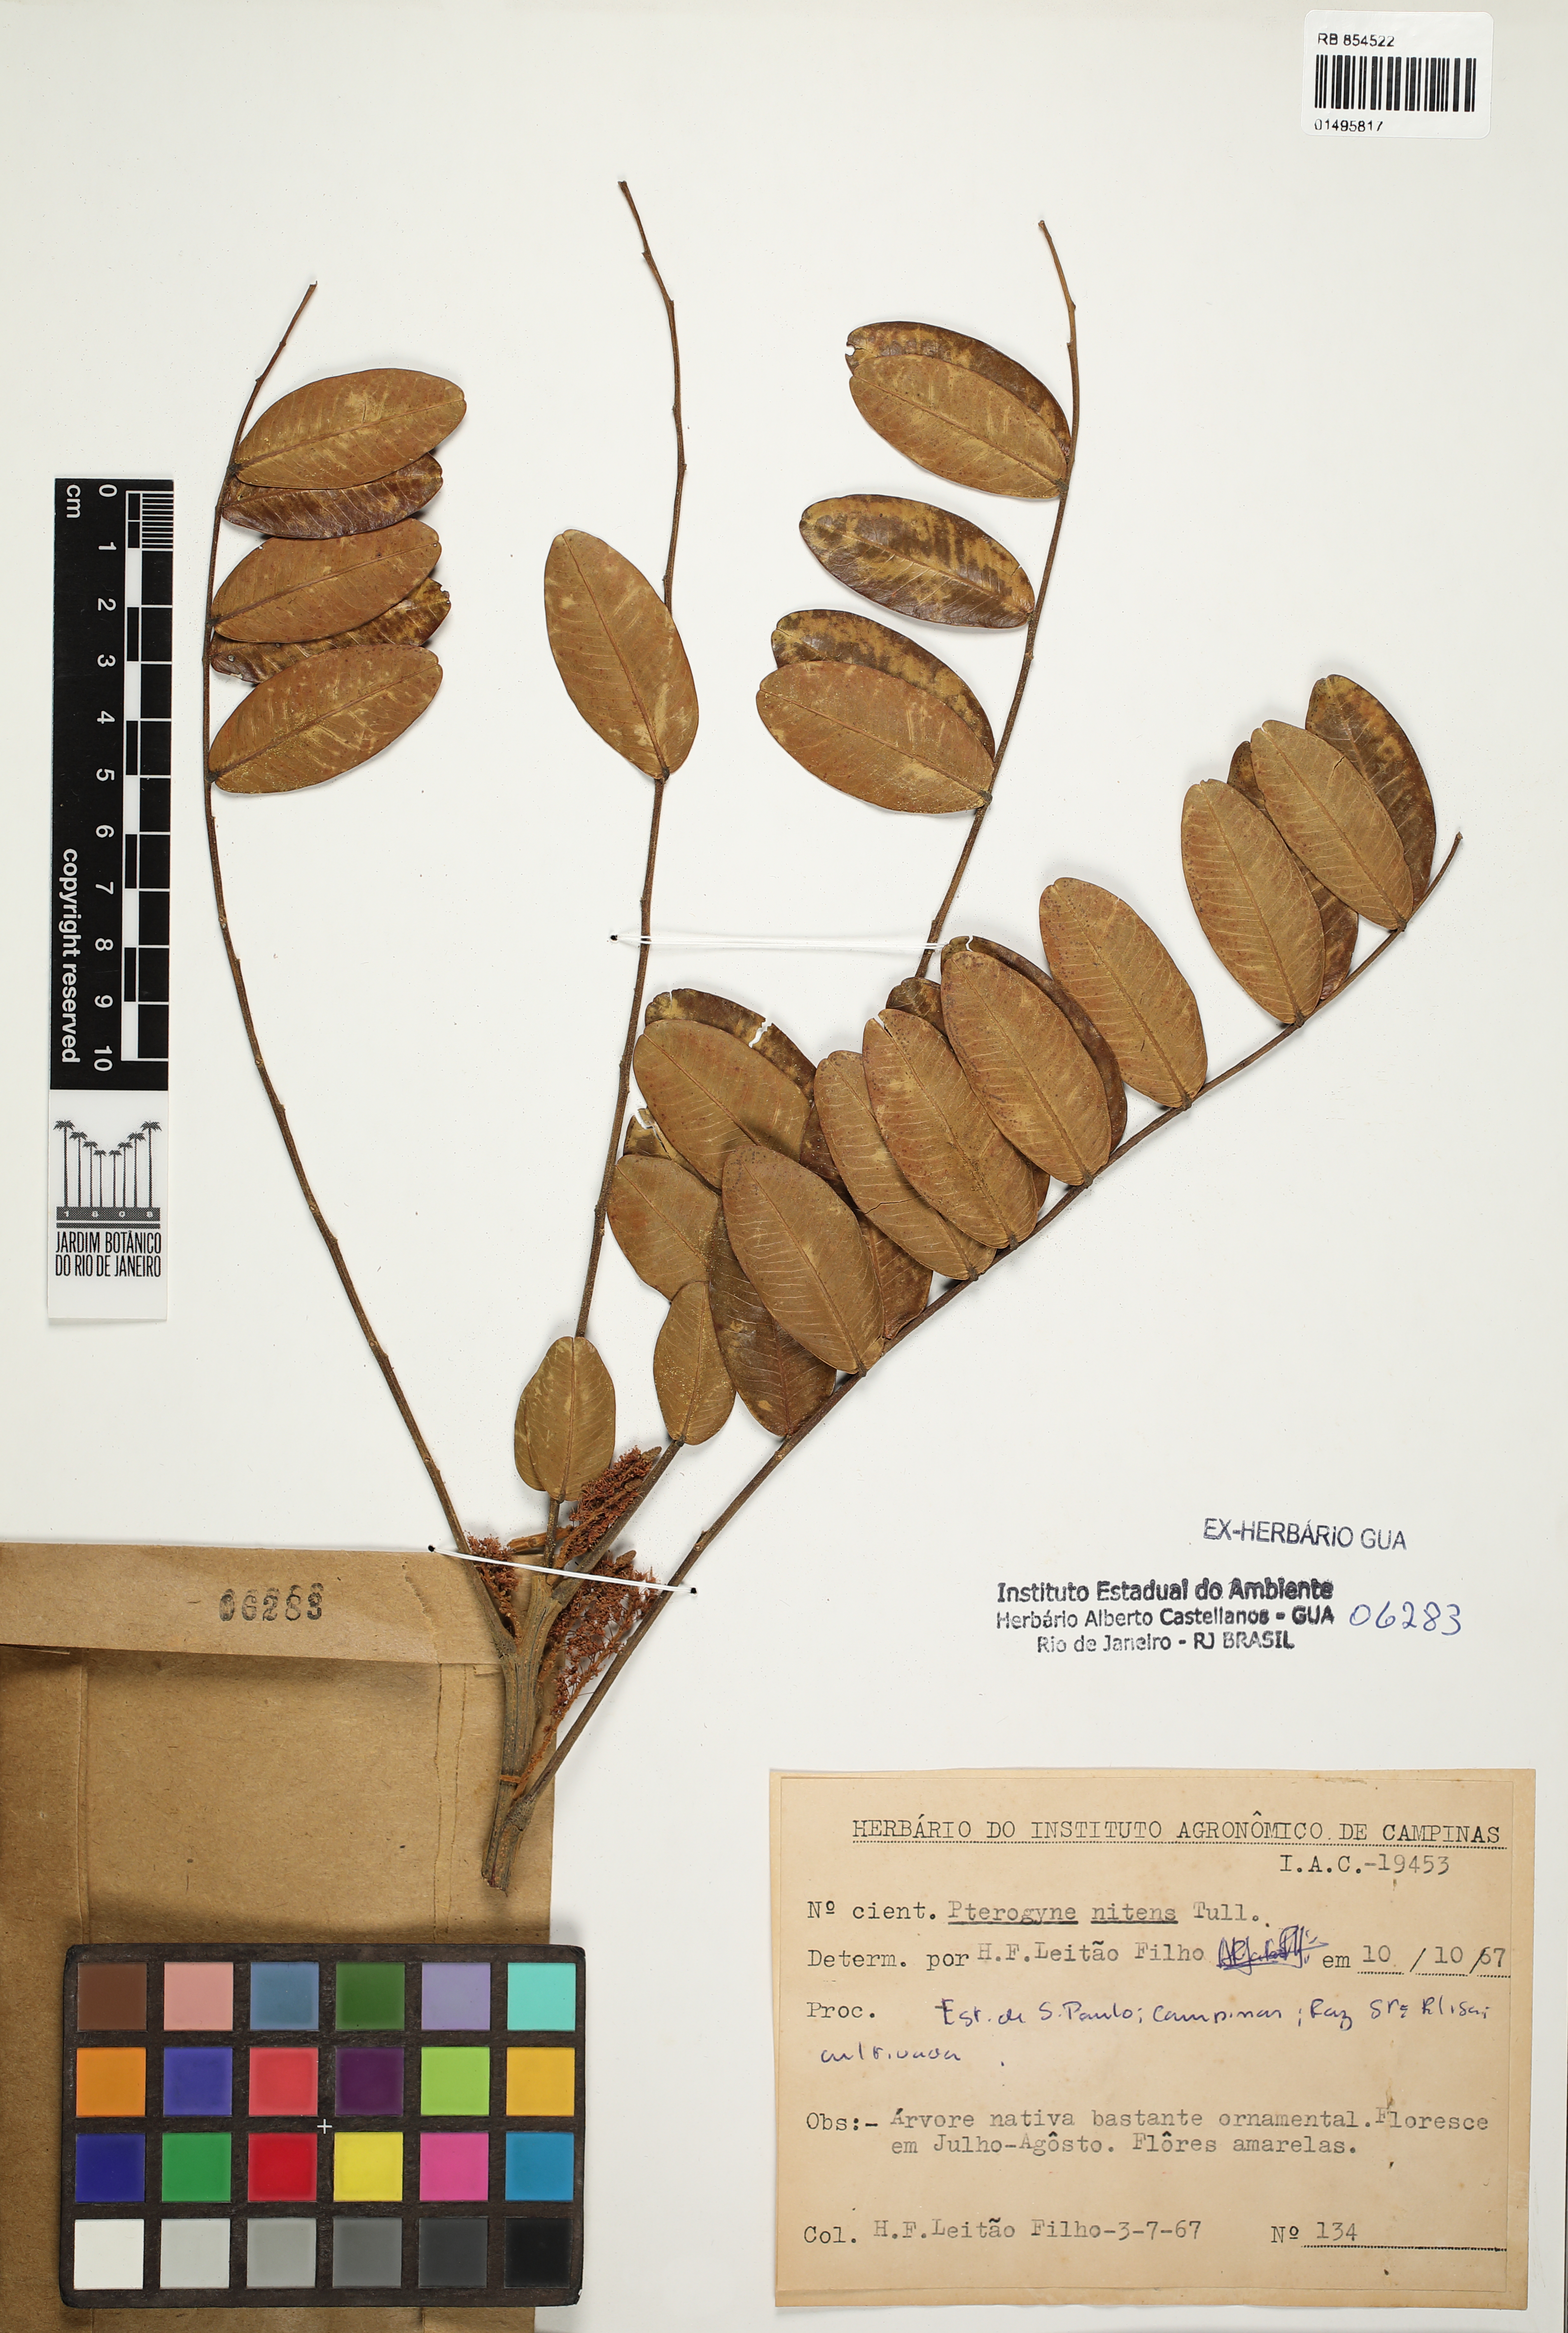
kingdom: Plantae
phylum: Tracheophyta
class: Magnoliopsida
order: Fabales
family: Fabaceae
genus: Pterogyne
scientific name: Pterogyne nitens
